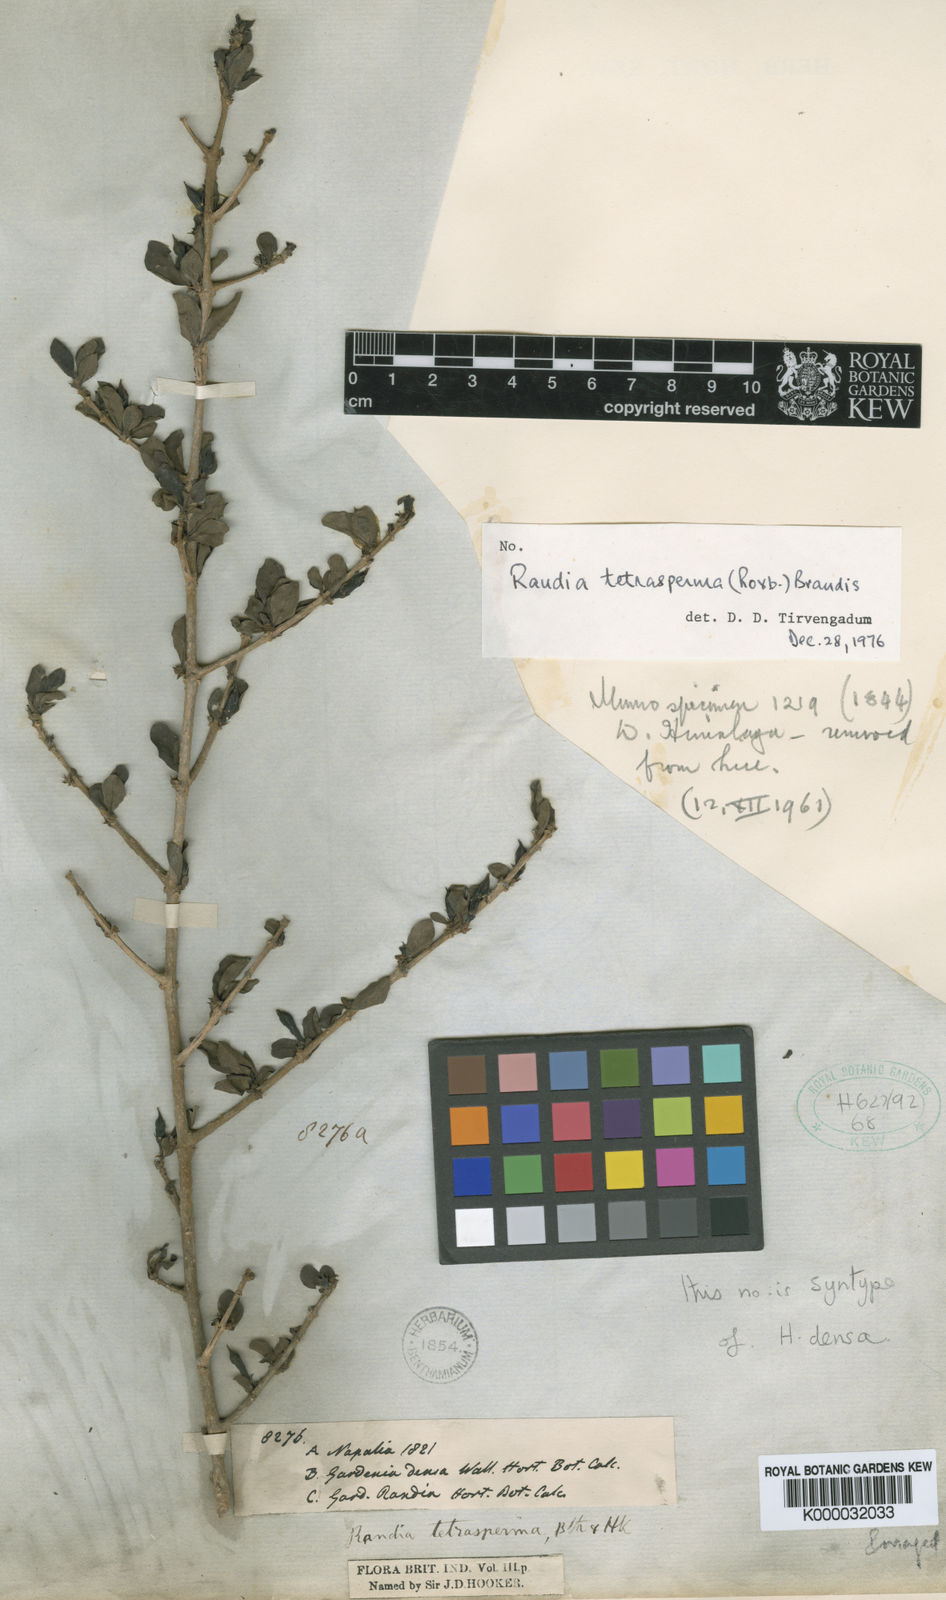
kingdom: Plantae
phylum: Tracheophyta
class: Magnoliopsida
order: Gentianales
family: Rubiaceae
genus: Himalrandia
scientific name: Himalrandia tetrasperma
